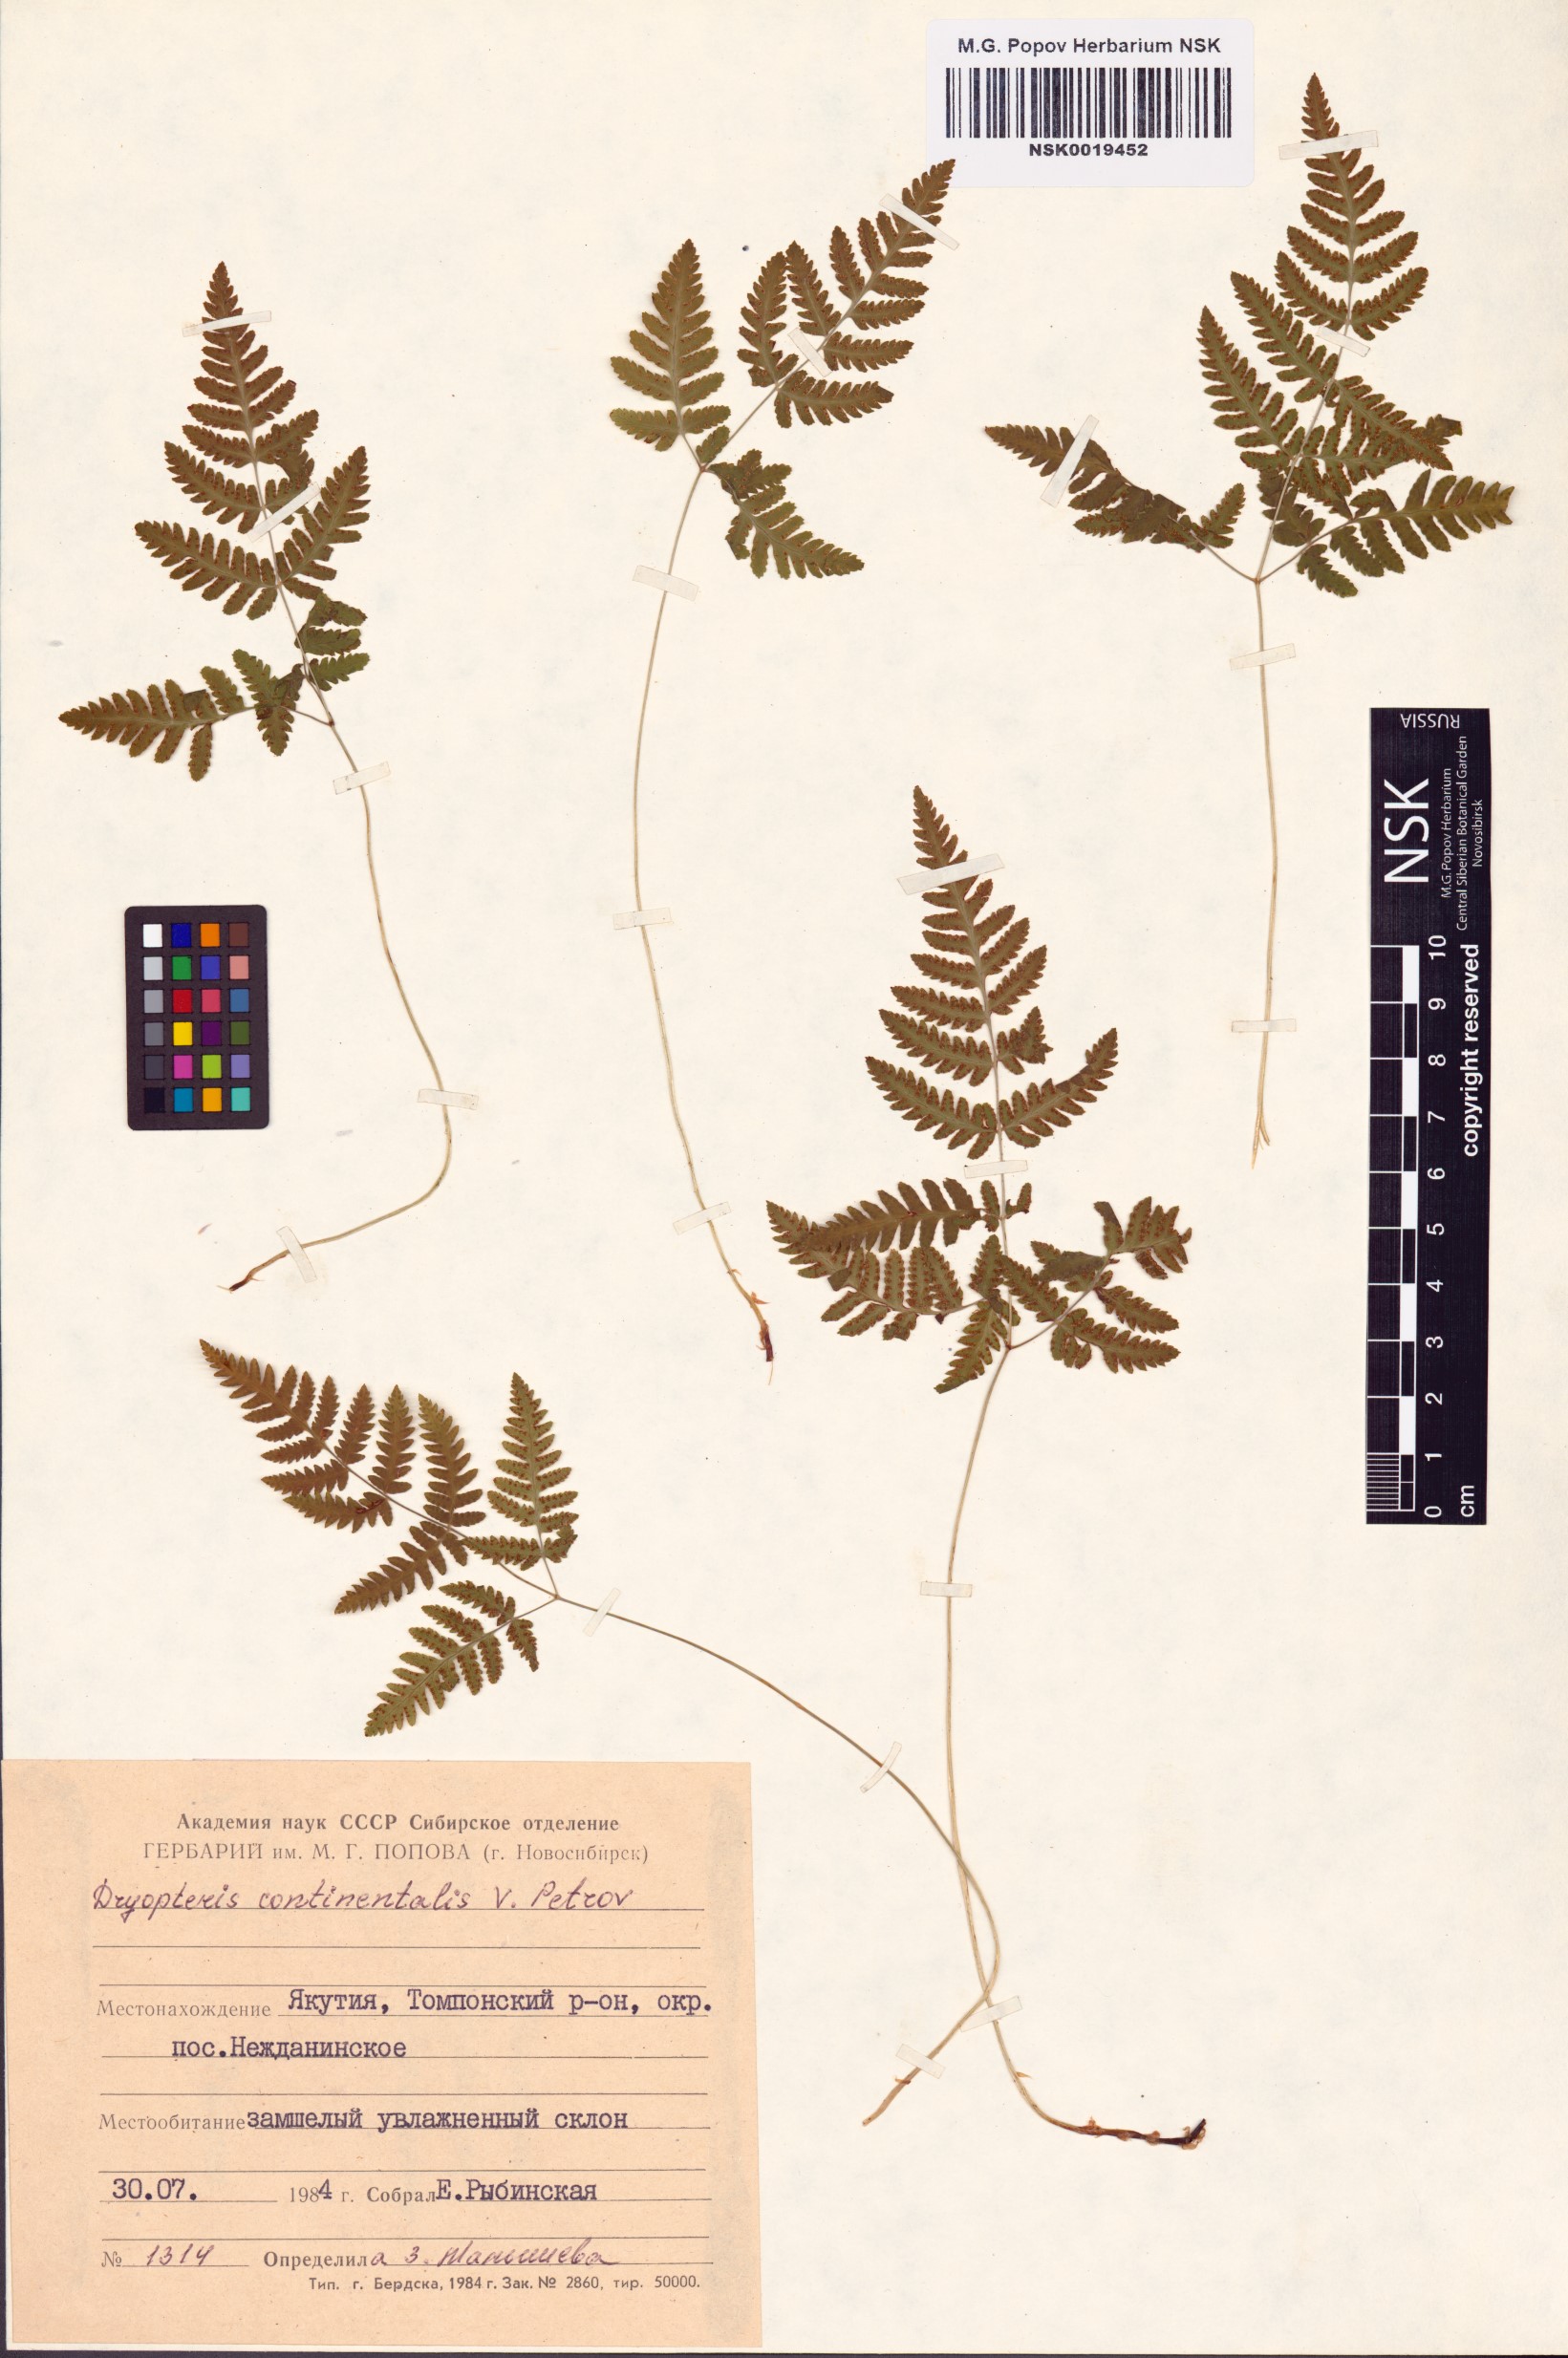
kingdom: Plantae
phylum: Tracheophyta
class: Polypodiopsida
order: Polypodiales
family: Cystopteridaceae
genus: Gymnocarpium
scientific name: Gymnocarpium continentale
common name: Asian oak fern
